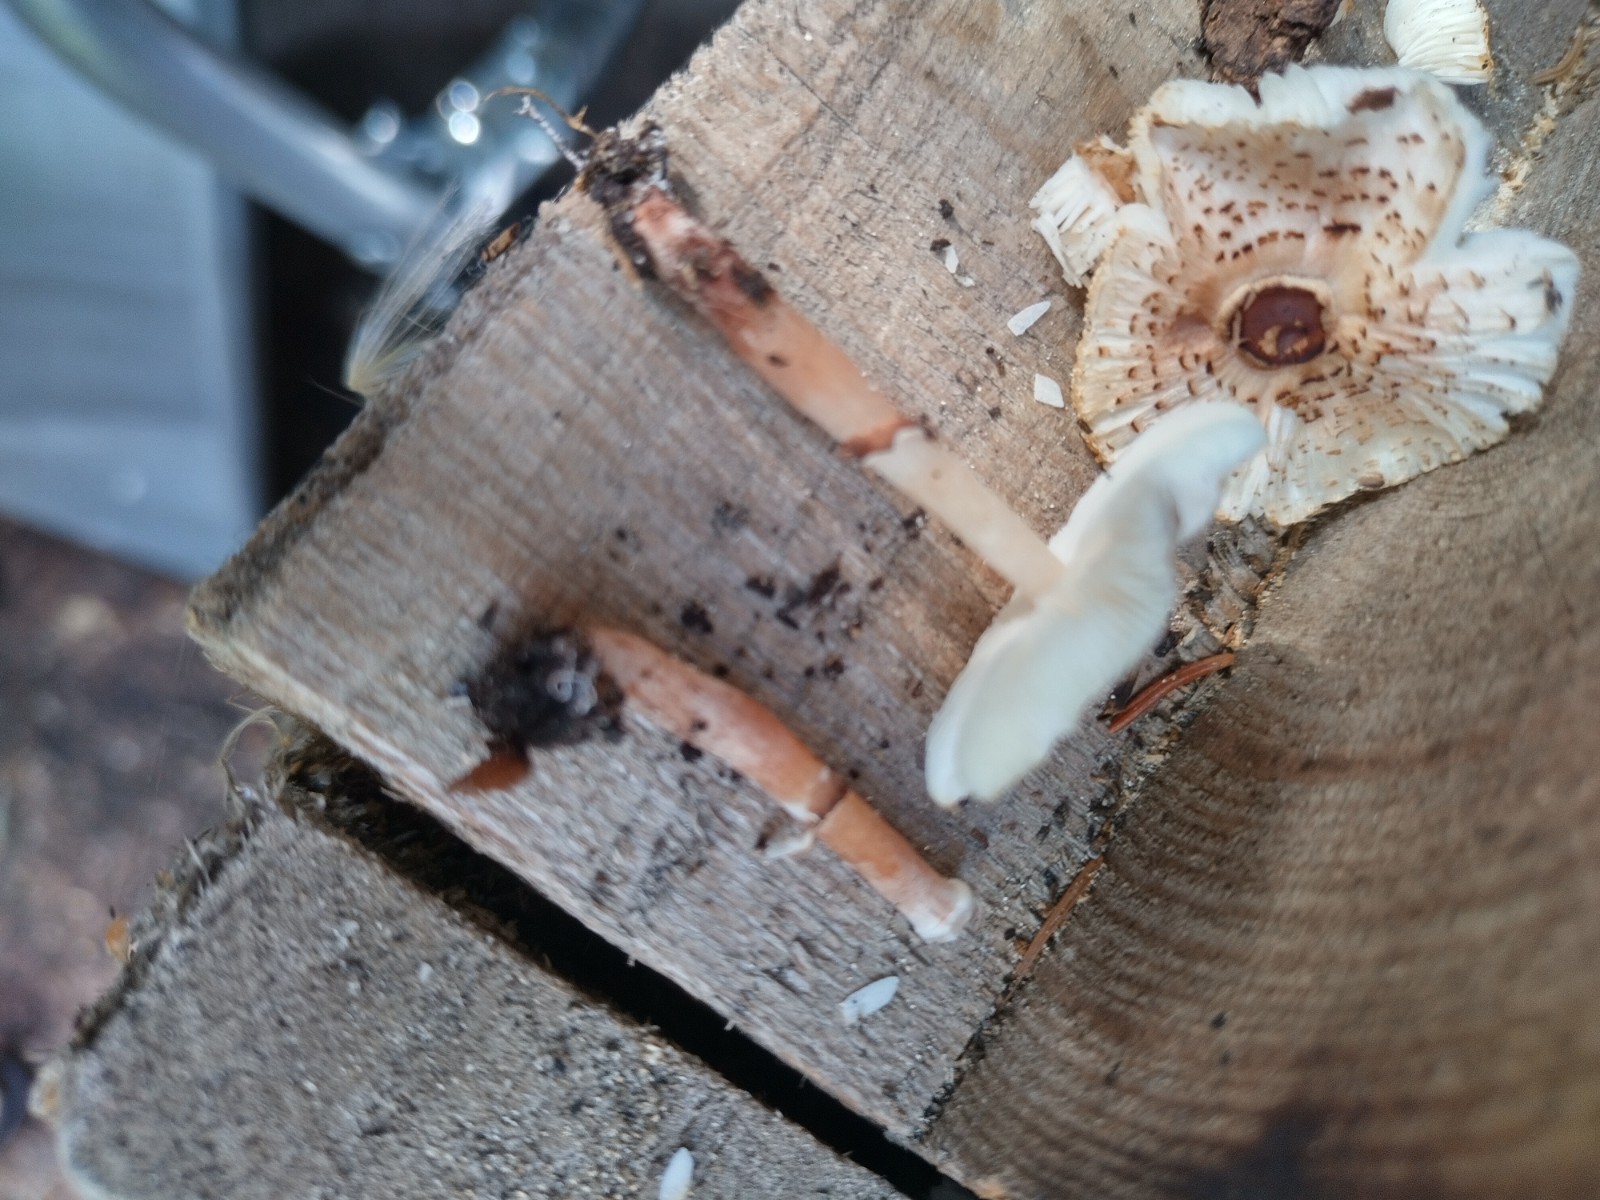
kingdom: Fungi
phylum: Basidiomycota
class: Agaricomycetes
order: Agaricales
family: Agaricaceae
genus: Lepiota
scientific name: Lepiota lilacea
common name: lillabrun parasolhat
